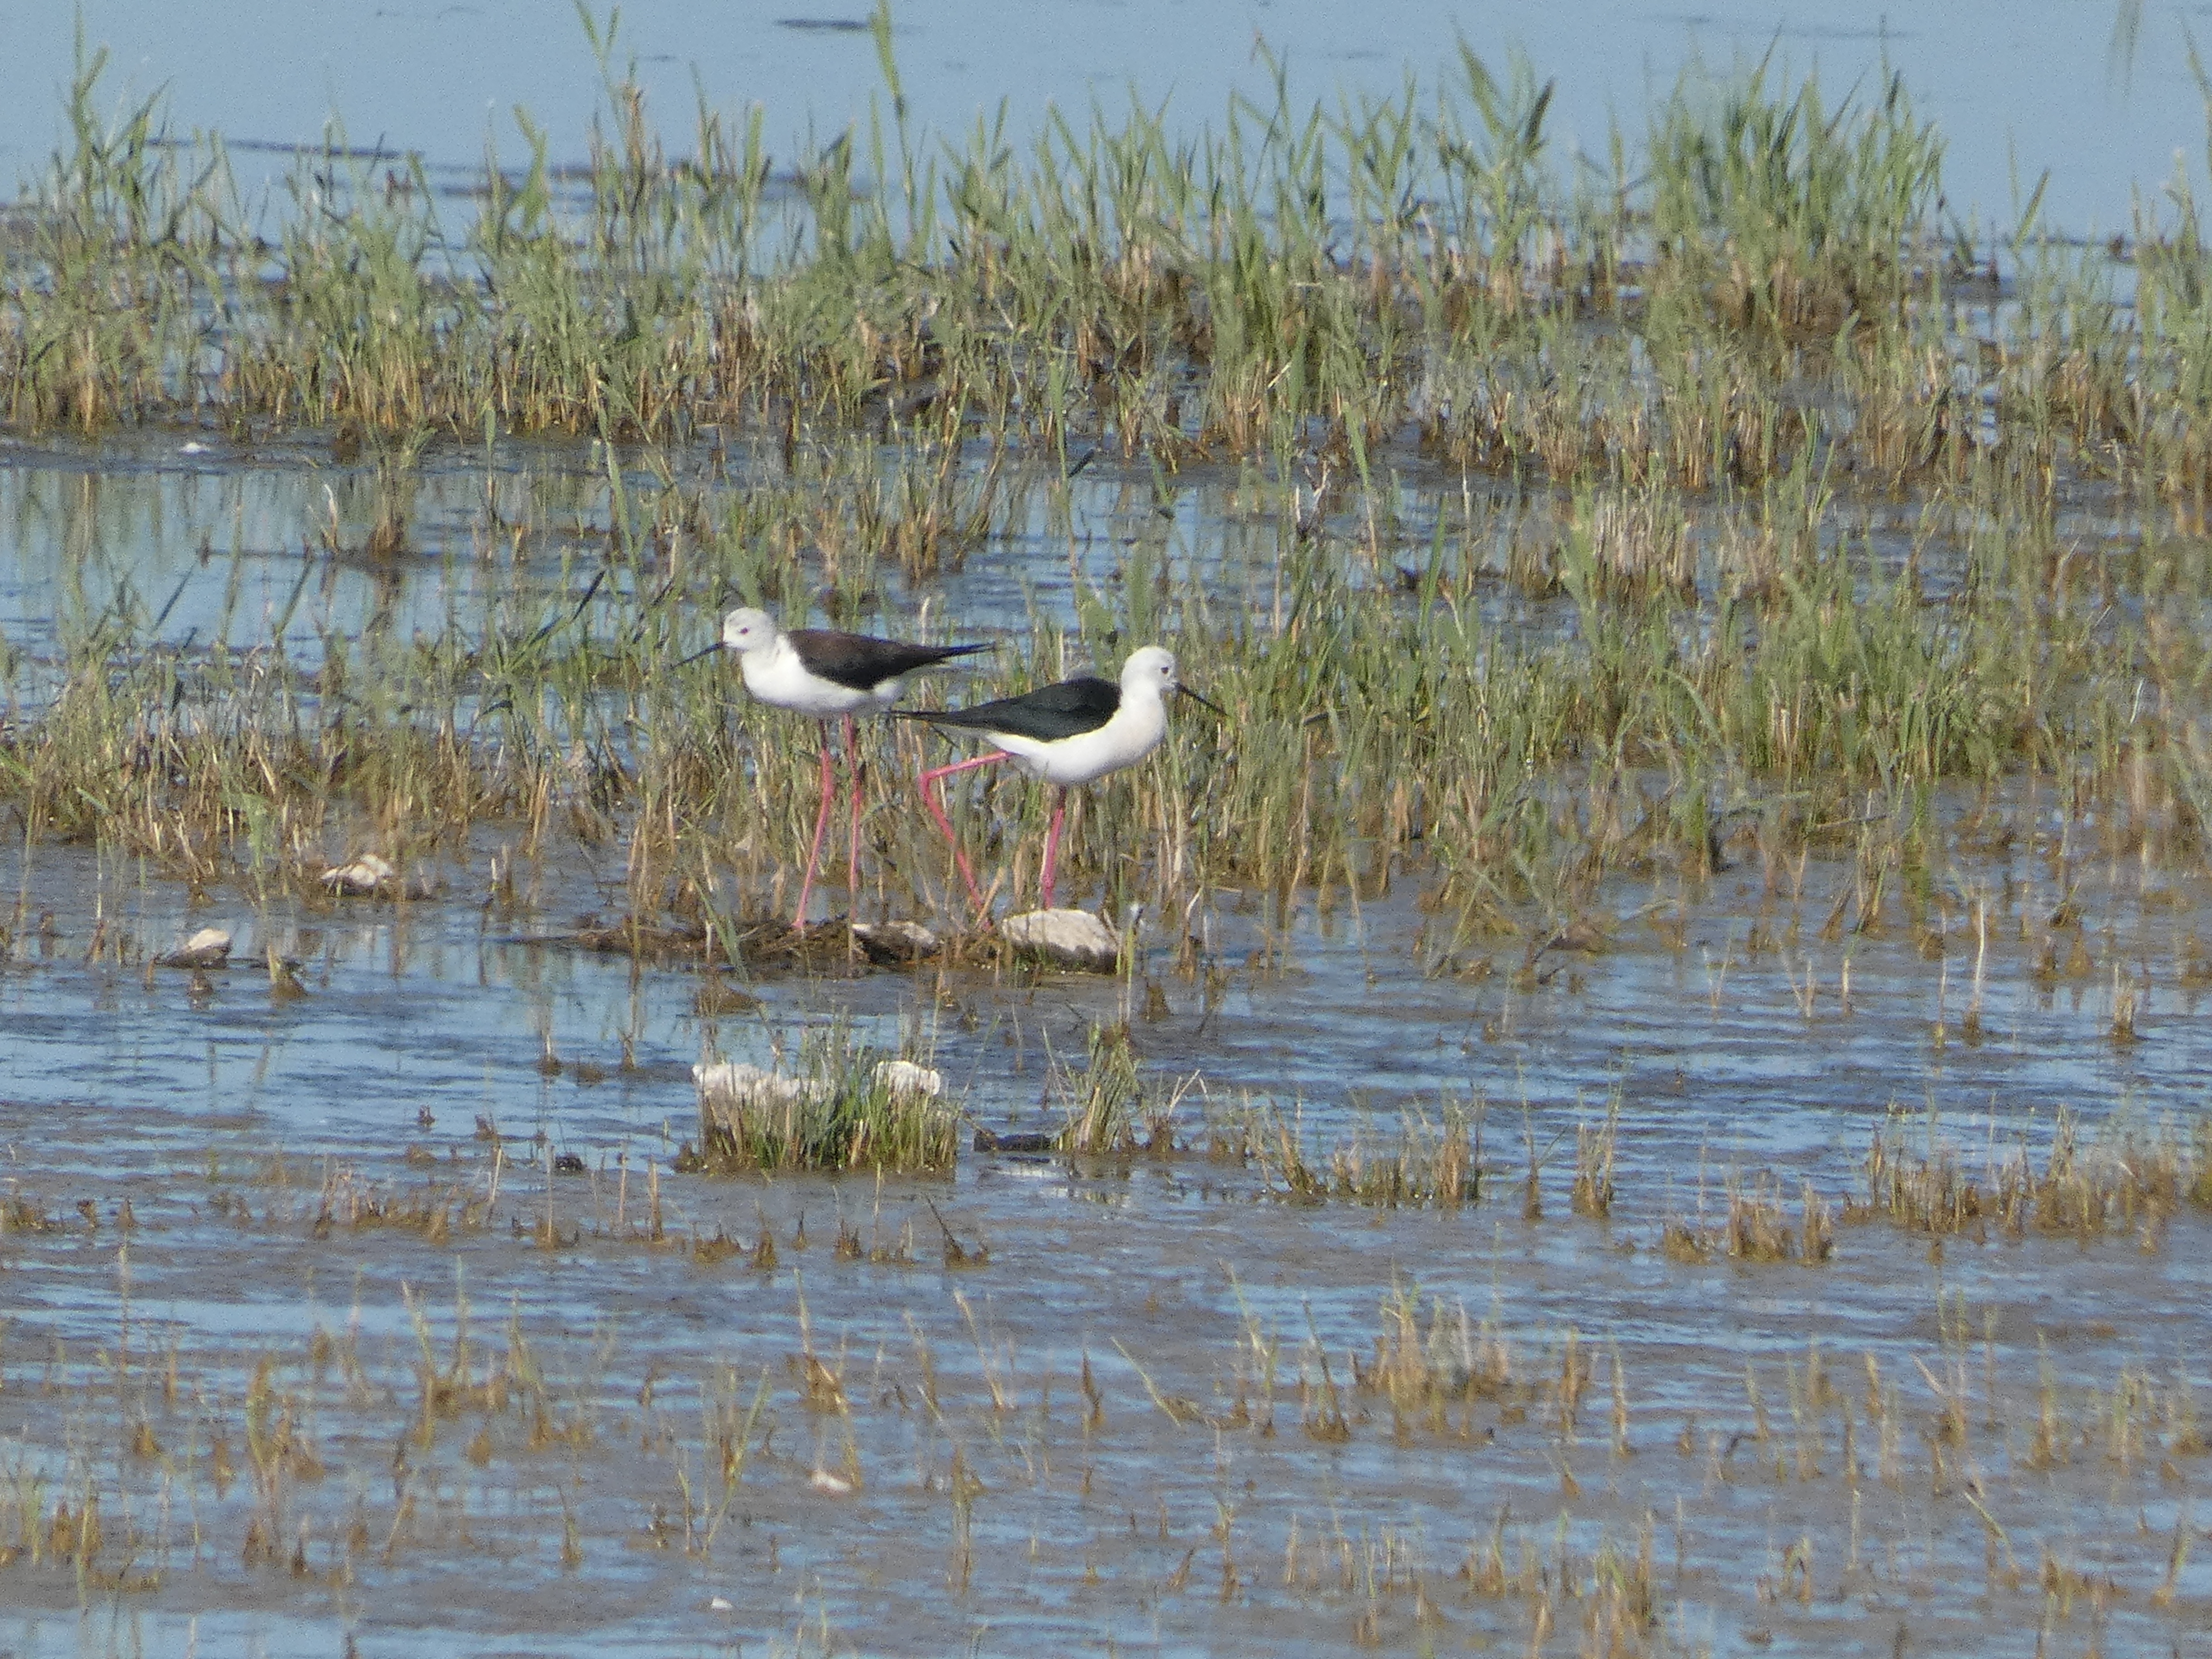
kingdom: Animalia
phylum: Chordata
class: Aves
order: Charadriiformes
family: Recurvirostridae
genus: Himantopus
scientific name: Himantopus himantopus
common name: Stylteløber
